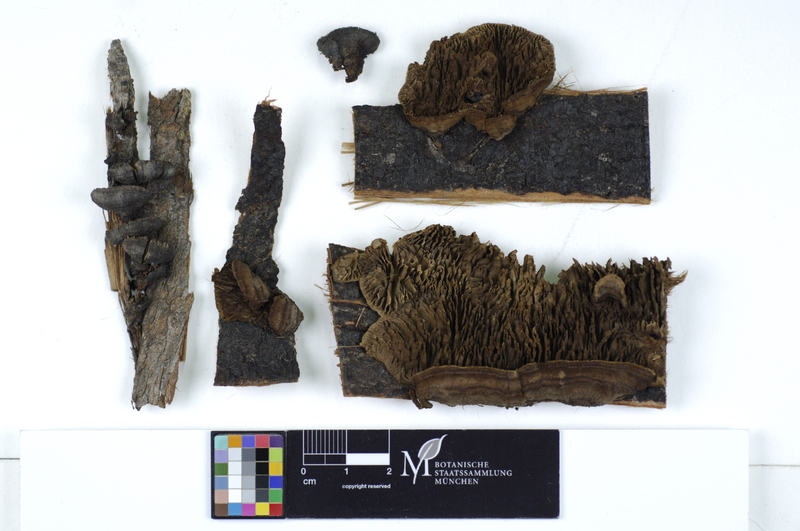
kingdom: Fungi
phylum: Basidiomycota
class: Agaricomycetes
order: Gloeophyllales
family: Gloeophyllaceae
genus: Gloeophyllum
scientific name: Gloeophyllum abietinum
